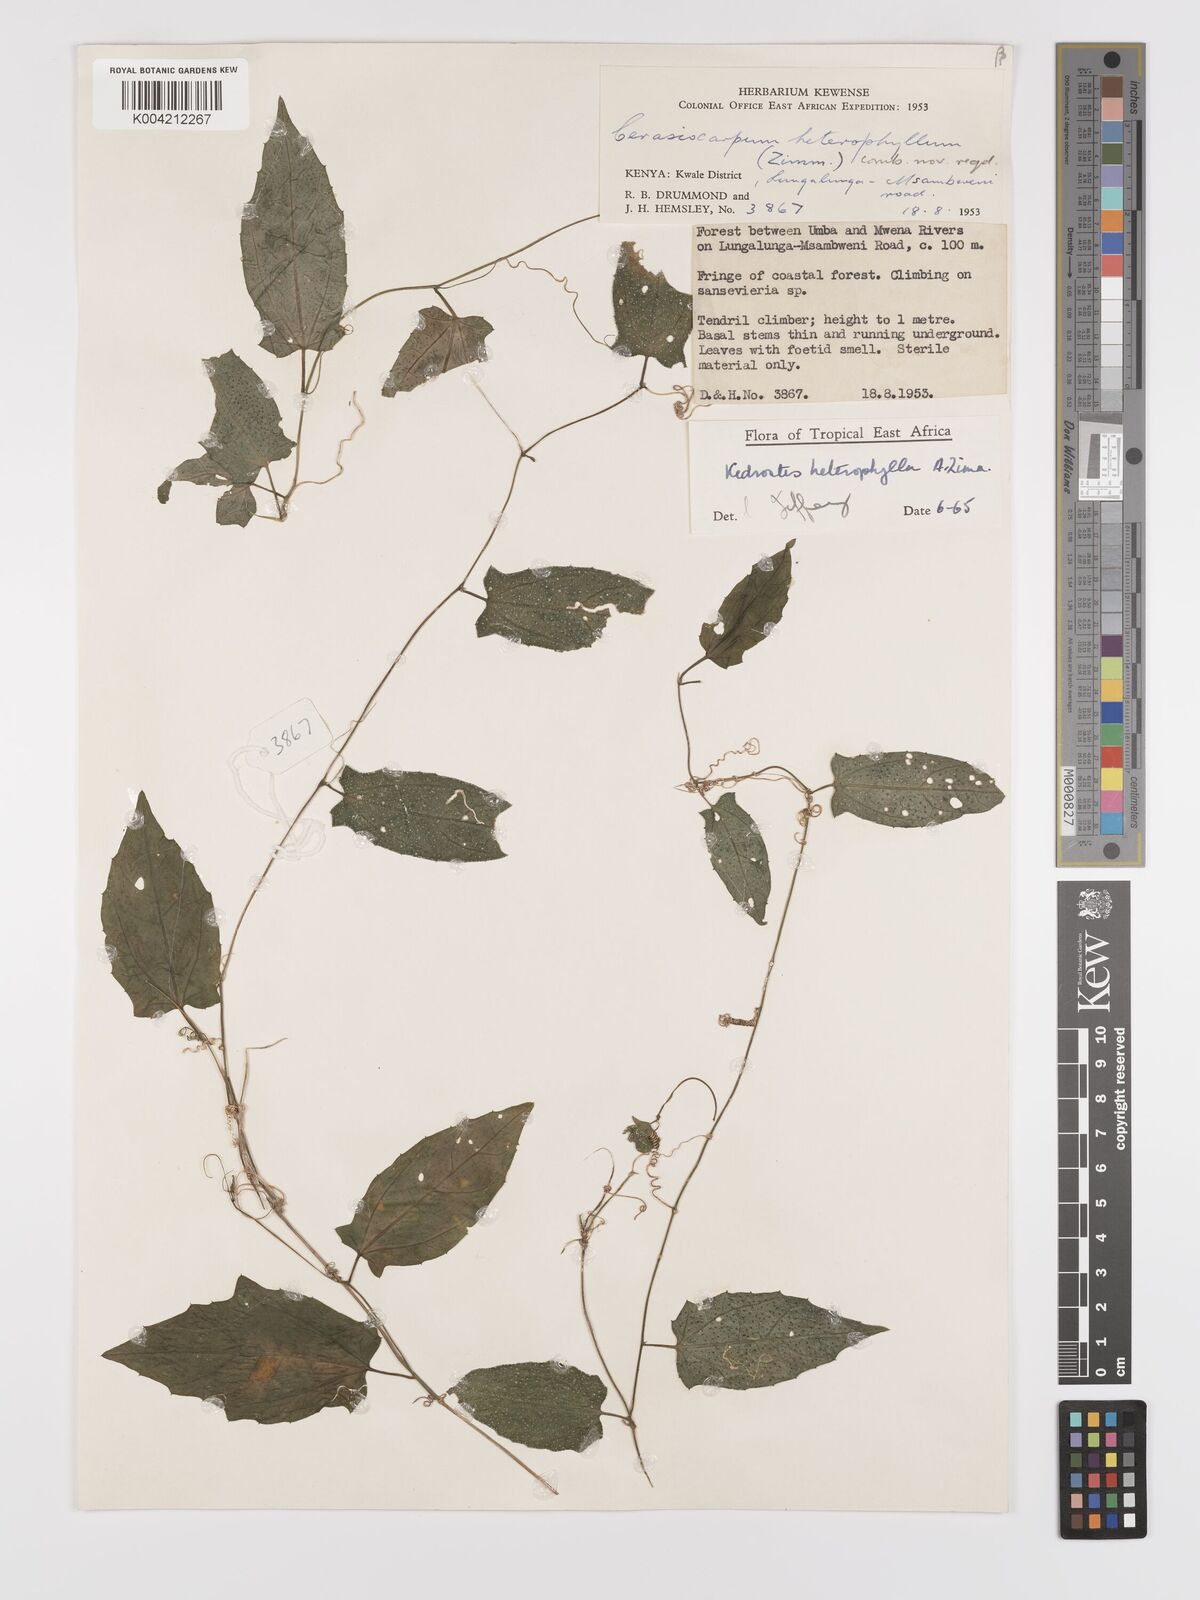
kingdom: Plantae
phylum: Tracheophyta
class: Magnoliopsida
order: Cucurbitales
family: Cucurbitaceae
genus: Kedrostis
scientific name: Kedrostis heterophylla
